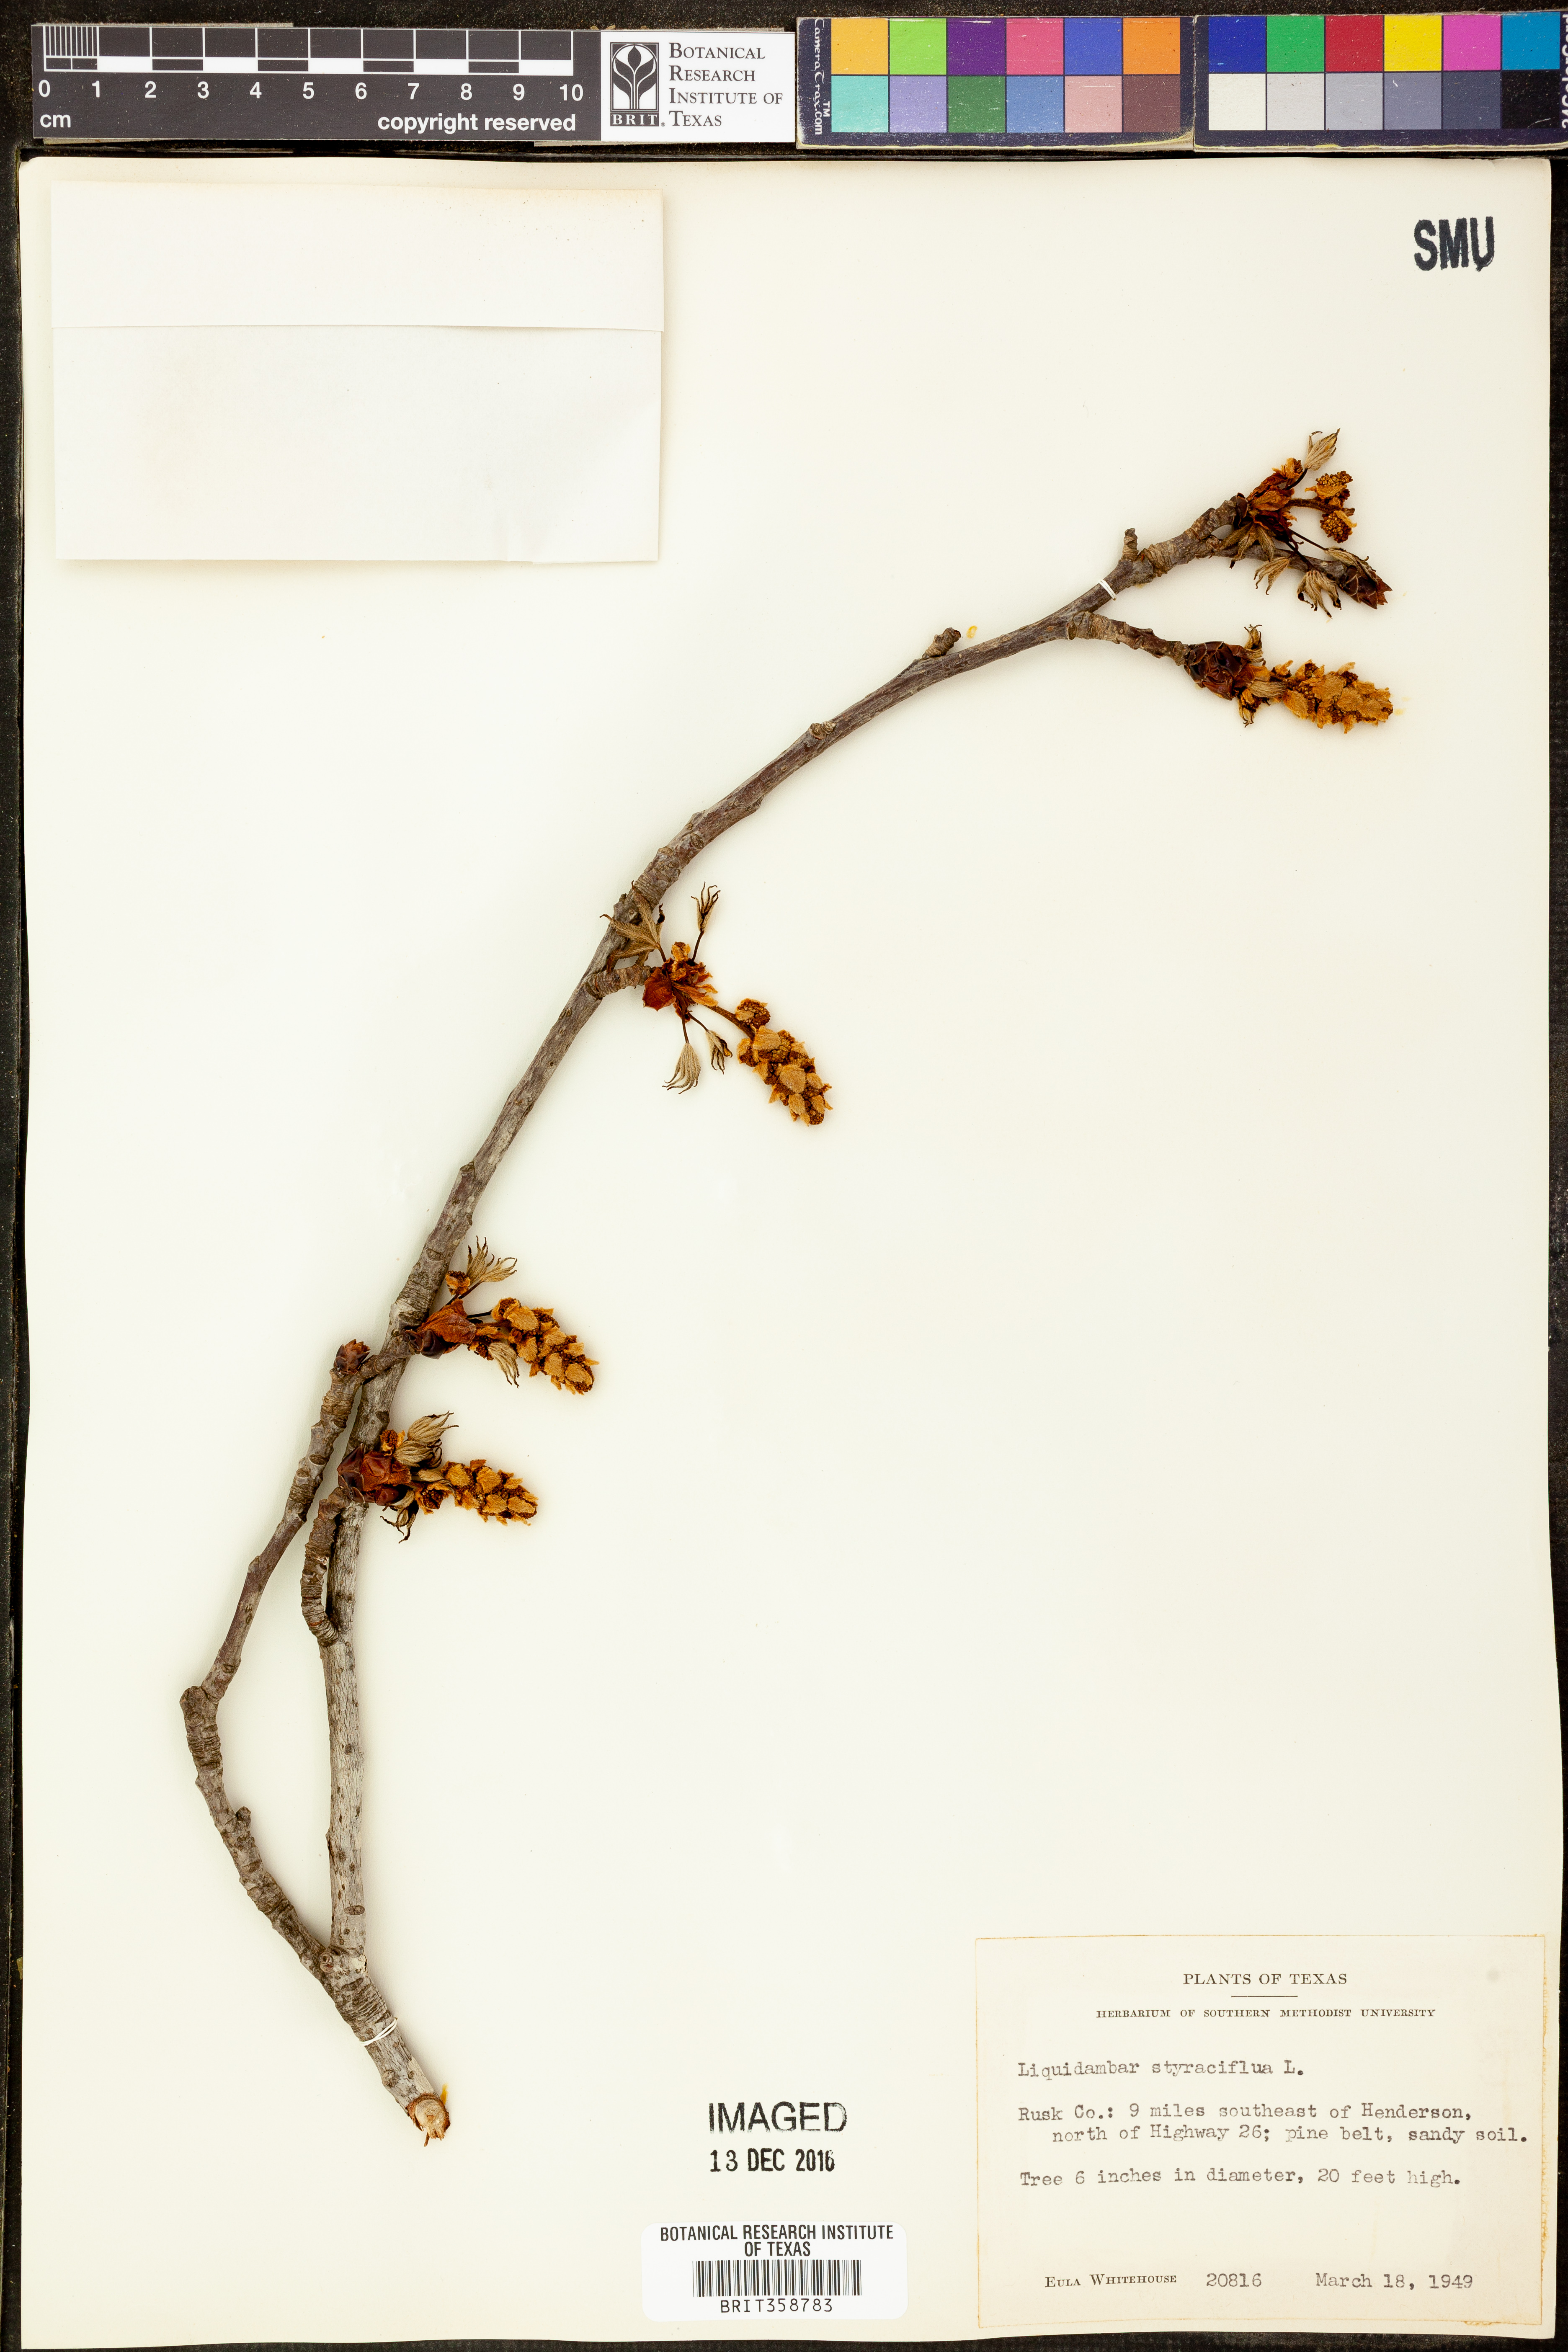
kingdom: Plantae
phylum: Tracheophyta
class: Magnoliopsida
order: Saxifragales
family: Altingiaceae
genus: Liquidambar
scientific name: Liquidambar styraciflua
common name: Sweet gum
